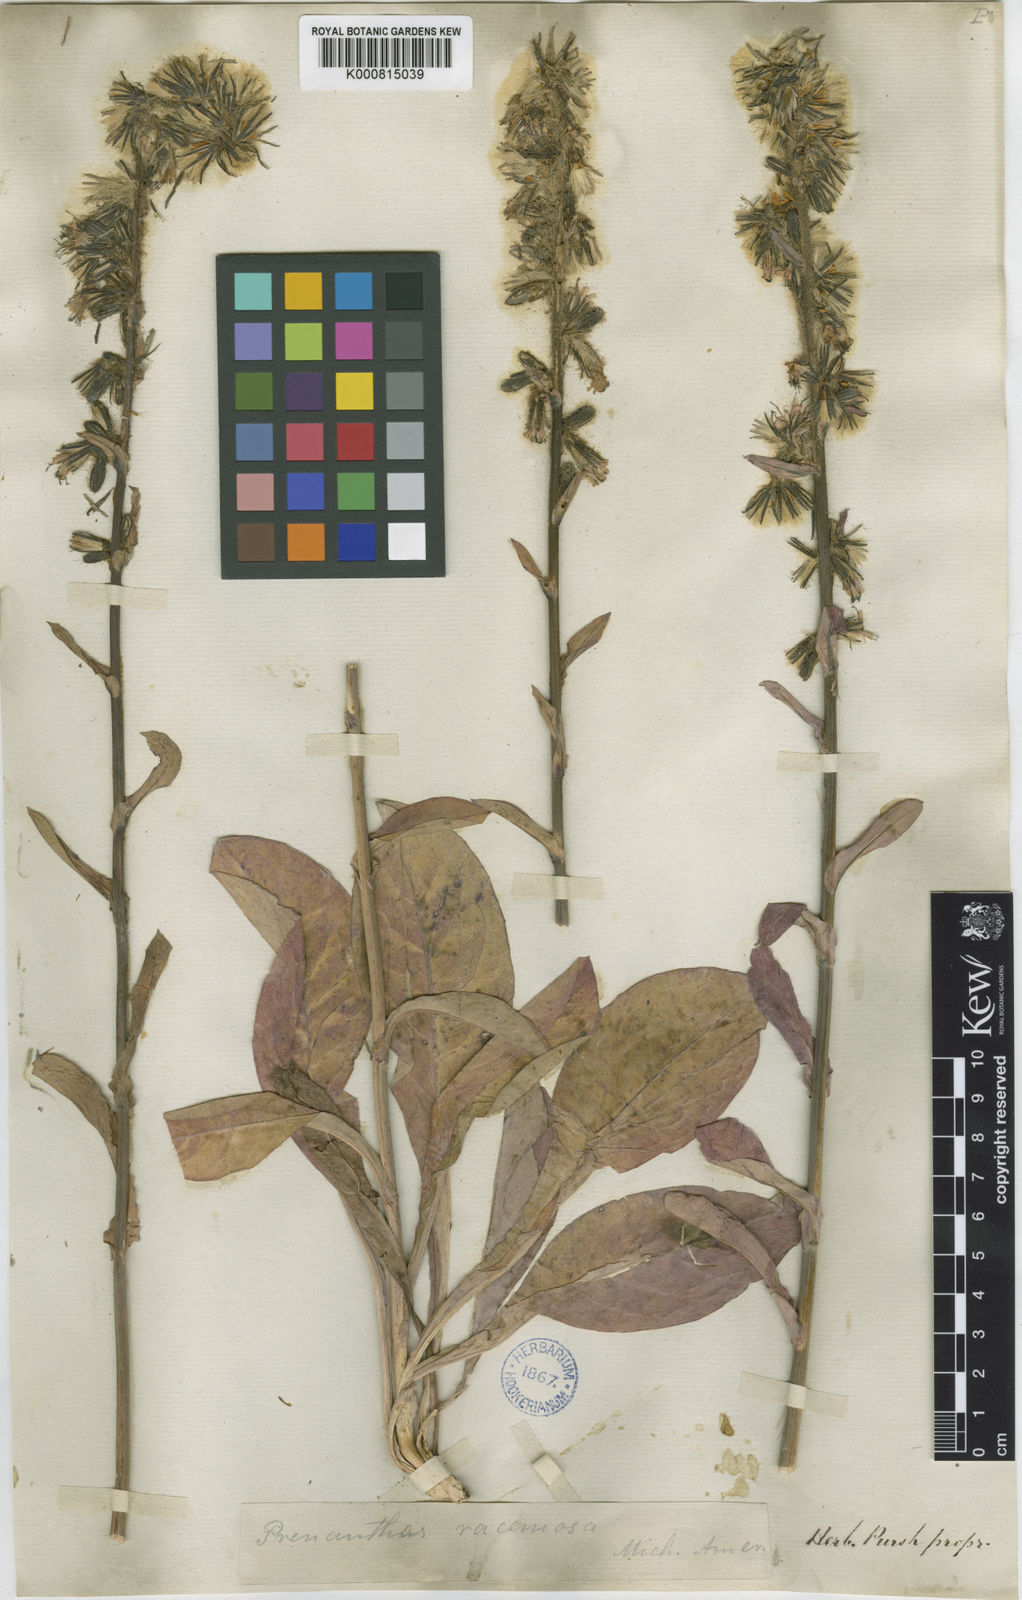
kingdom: Plantae
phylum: Tracheophyta
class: Magnoliopsida
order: Asterales
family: Asteraceae
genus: Nabalus
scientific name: Nabalus racemosus
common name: Glaucous white lettuce
